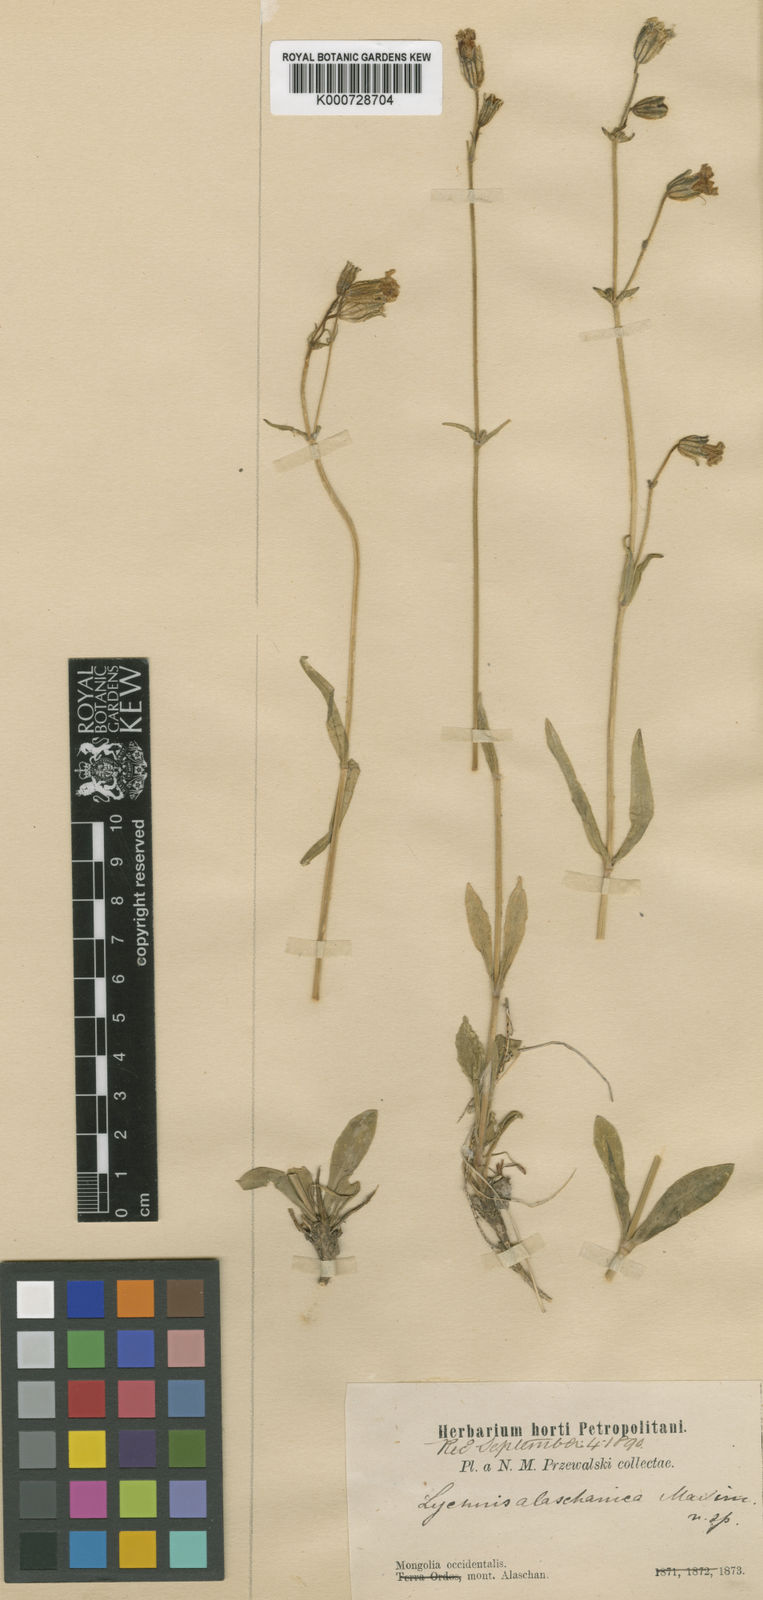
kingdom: Plantae
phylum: Tracheophyta
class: Magnoliopsida
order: Caryophyllales
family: Caryophyllaceae
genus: Silene
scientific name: Silene alaschanica
